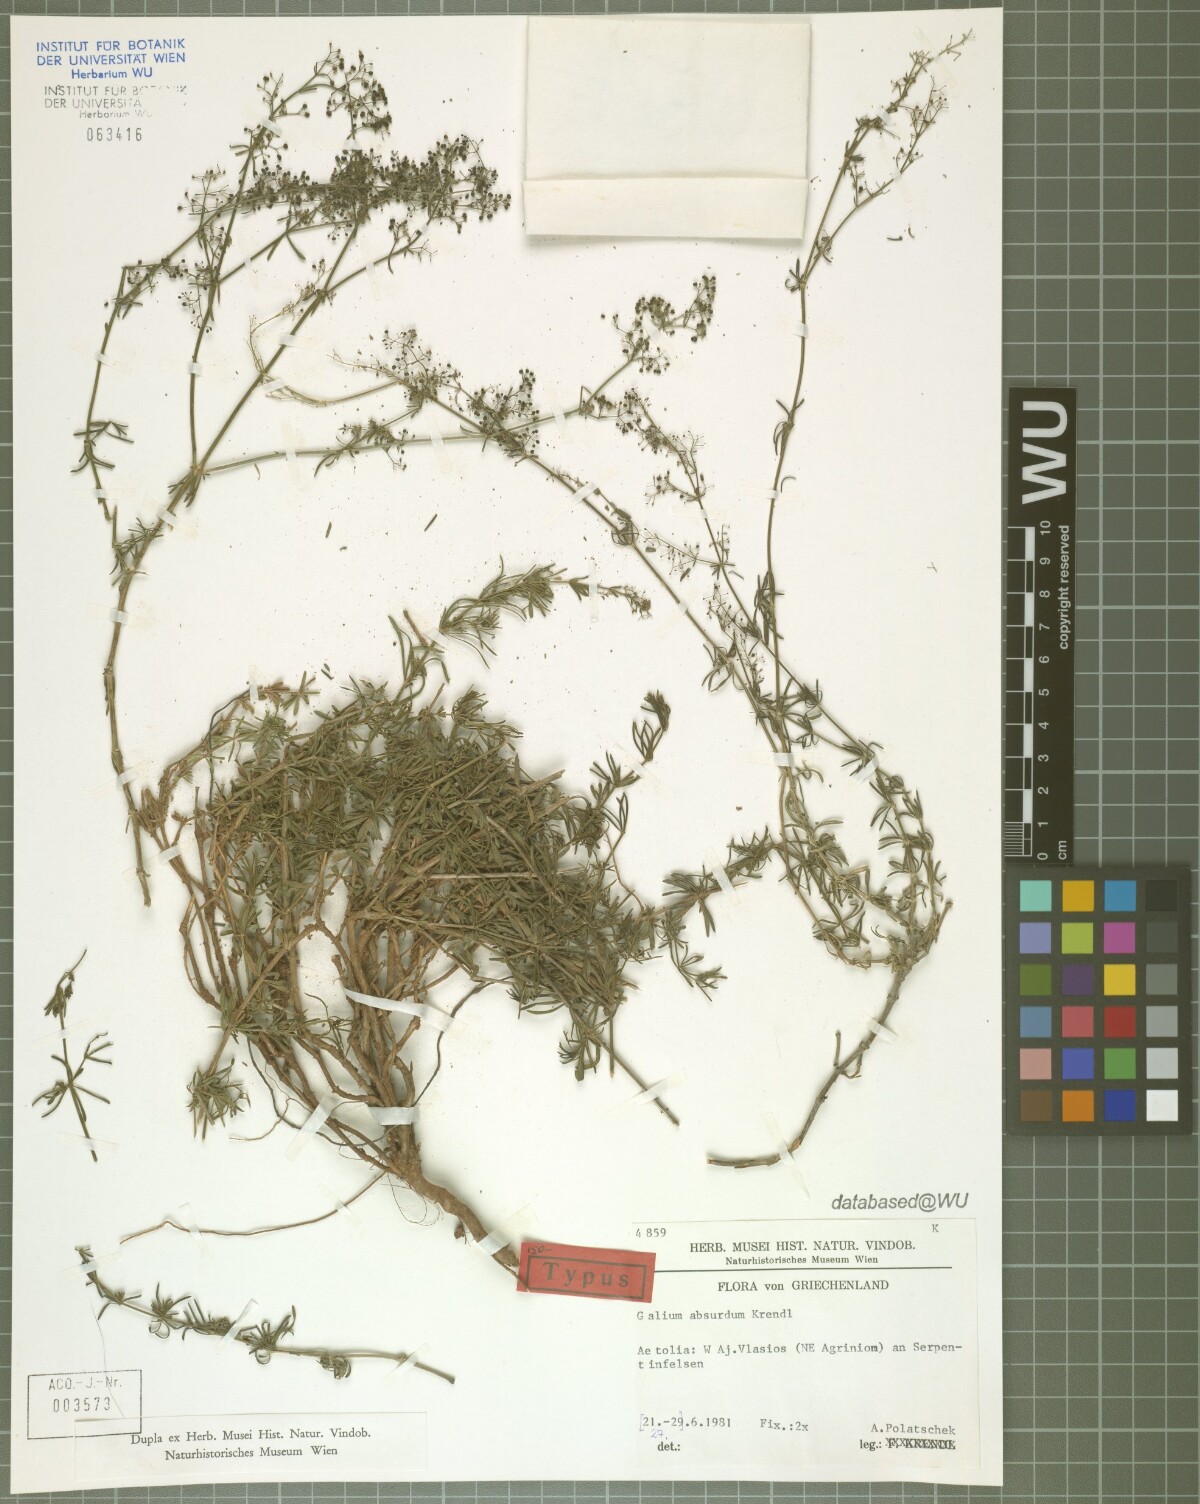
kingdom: Plantae
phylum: Tracheophyta
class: Magnoliopsida
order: Gentianales
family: Rubiaceae
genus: Galium
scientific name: Galium absurdum
